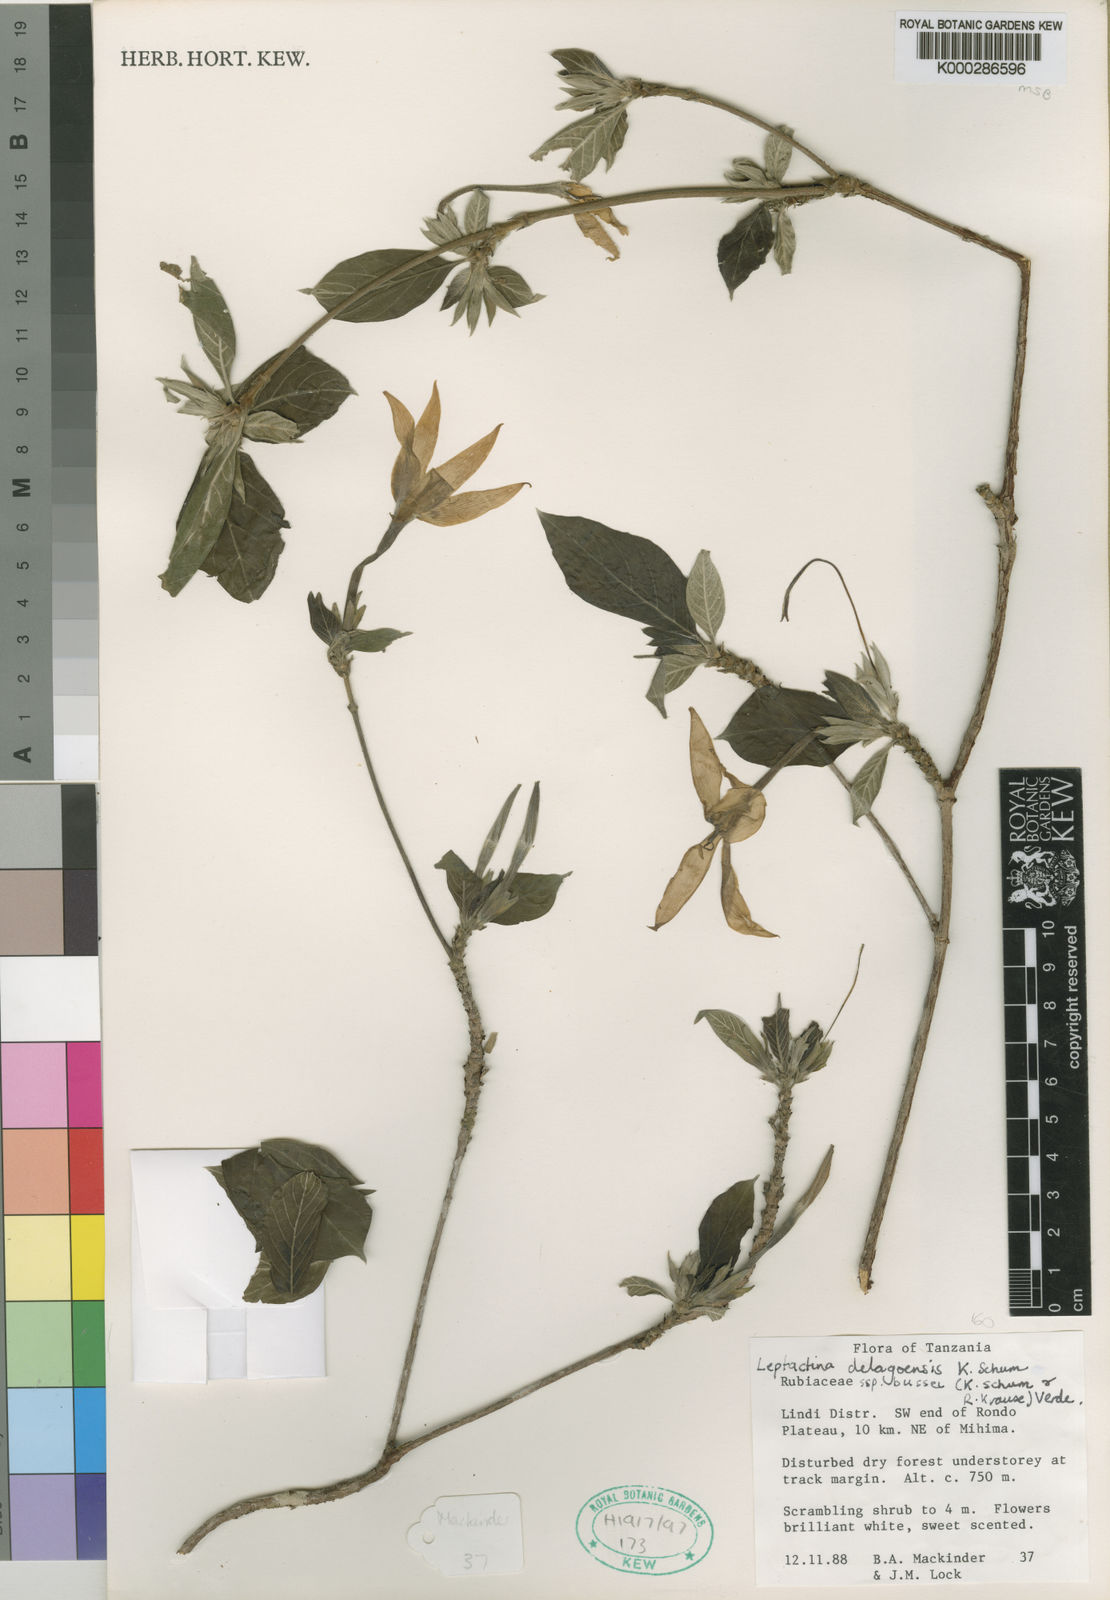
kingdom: Plantae
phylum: Tracheophyta
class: Magnoliopsida
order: Gentianales
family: Rubiaceae
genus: Leptactina
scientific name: Leptactina delagoensis
